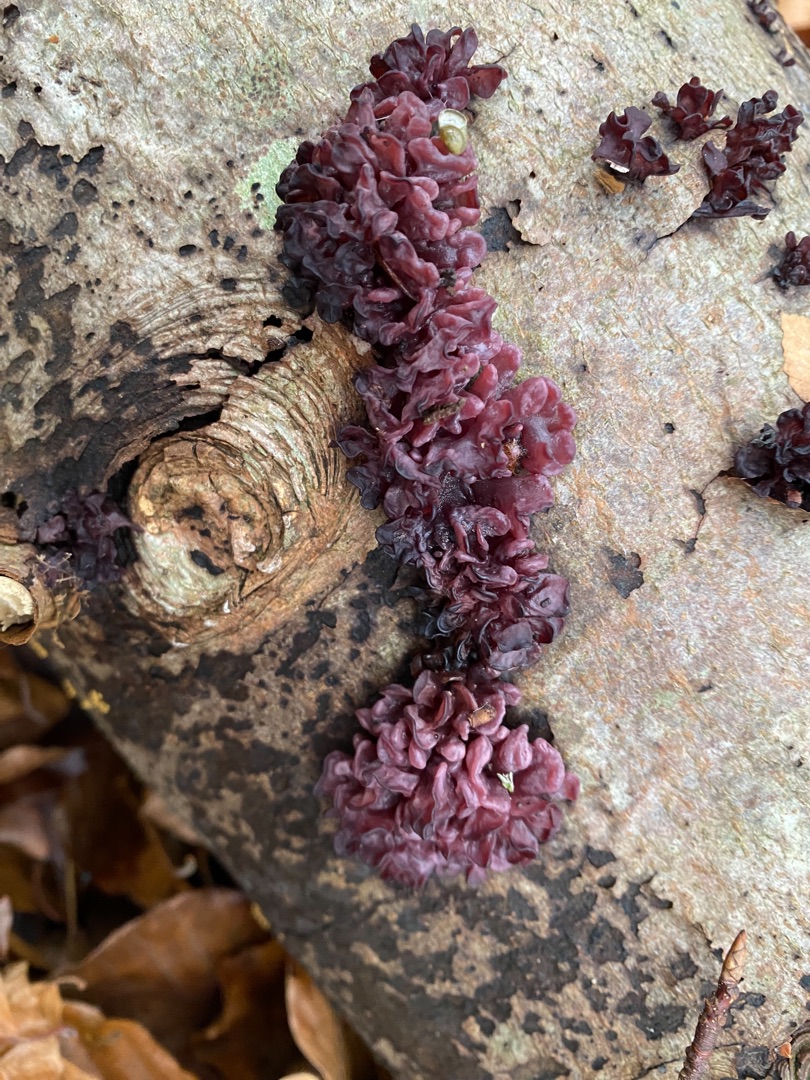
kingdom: Fungi
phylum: Ascomycota
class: Leotiomycetes
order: Helotiales
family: Gelatinodiscaceae
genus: Ascocoryne
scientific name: Ascocoryne sarcoides
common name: Rødlilla sejskive
